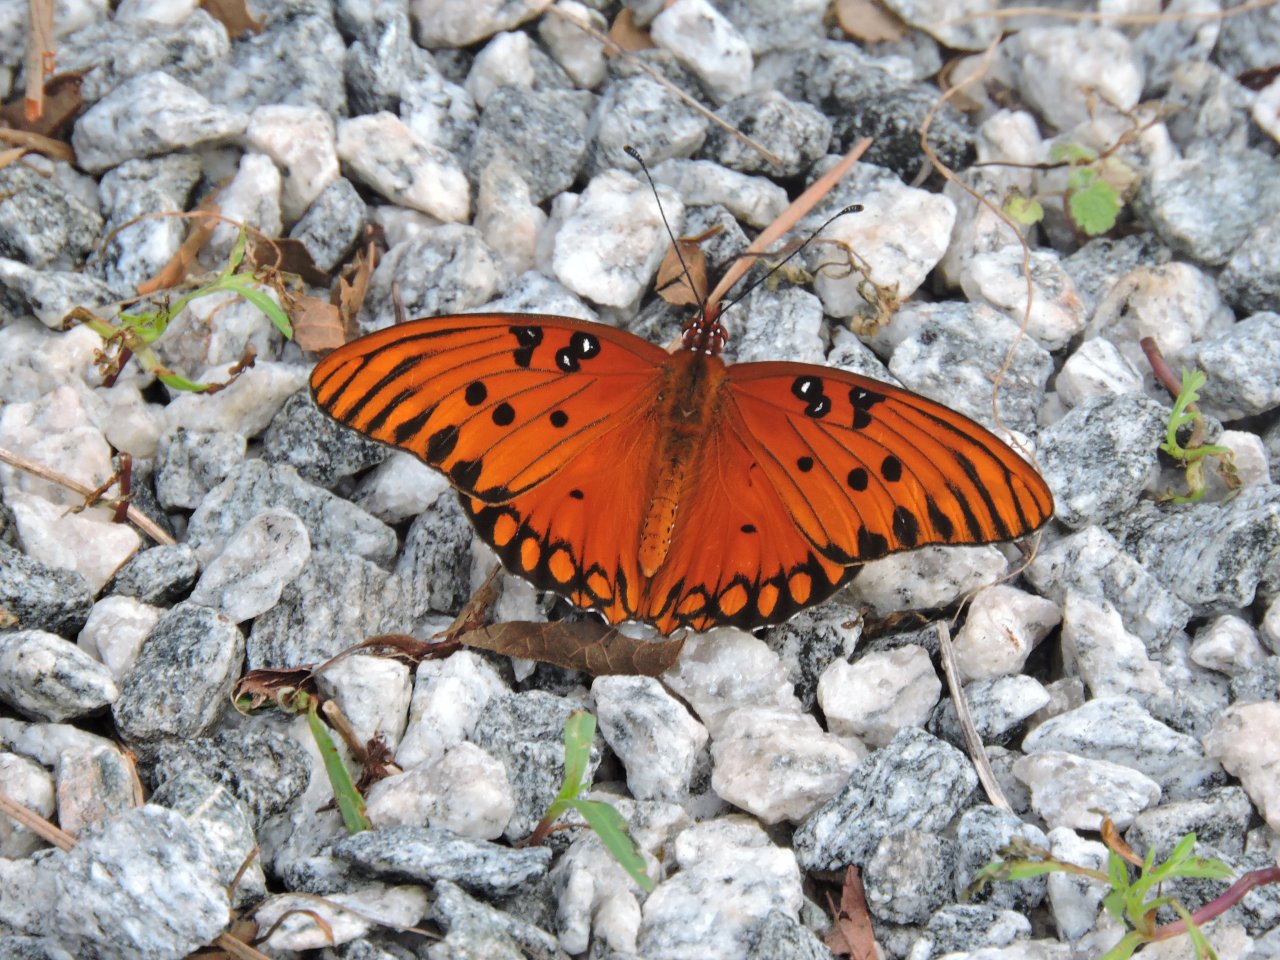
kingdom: Animalia
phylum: Arthropoda
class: Insecta
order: Lepidoptera
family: Nymphalidae
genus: Dione
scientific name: Dione vanillae
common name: Gulf Fritillary
